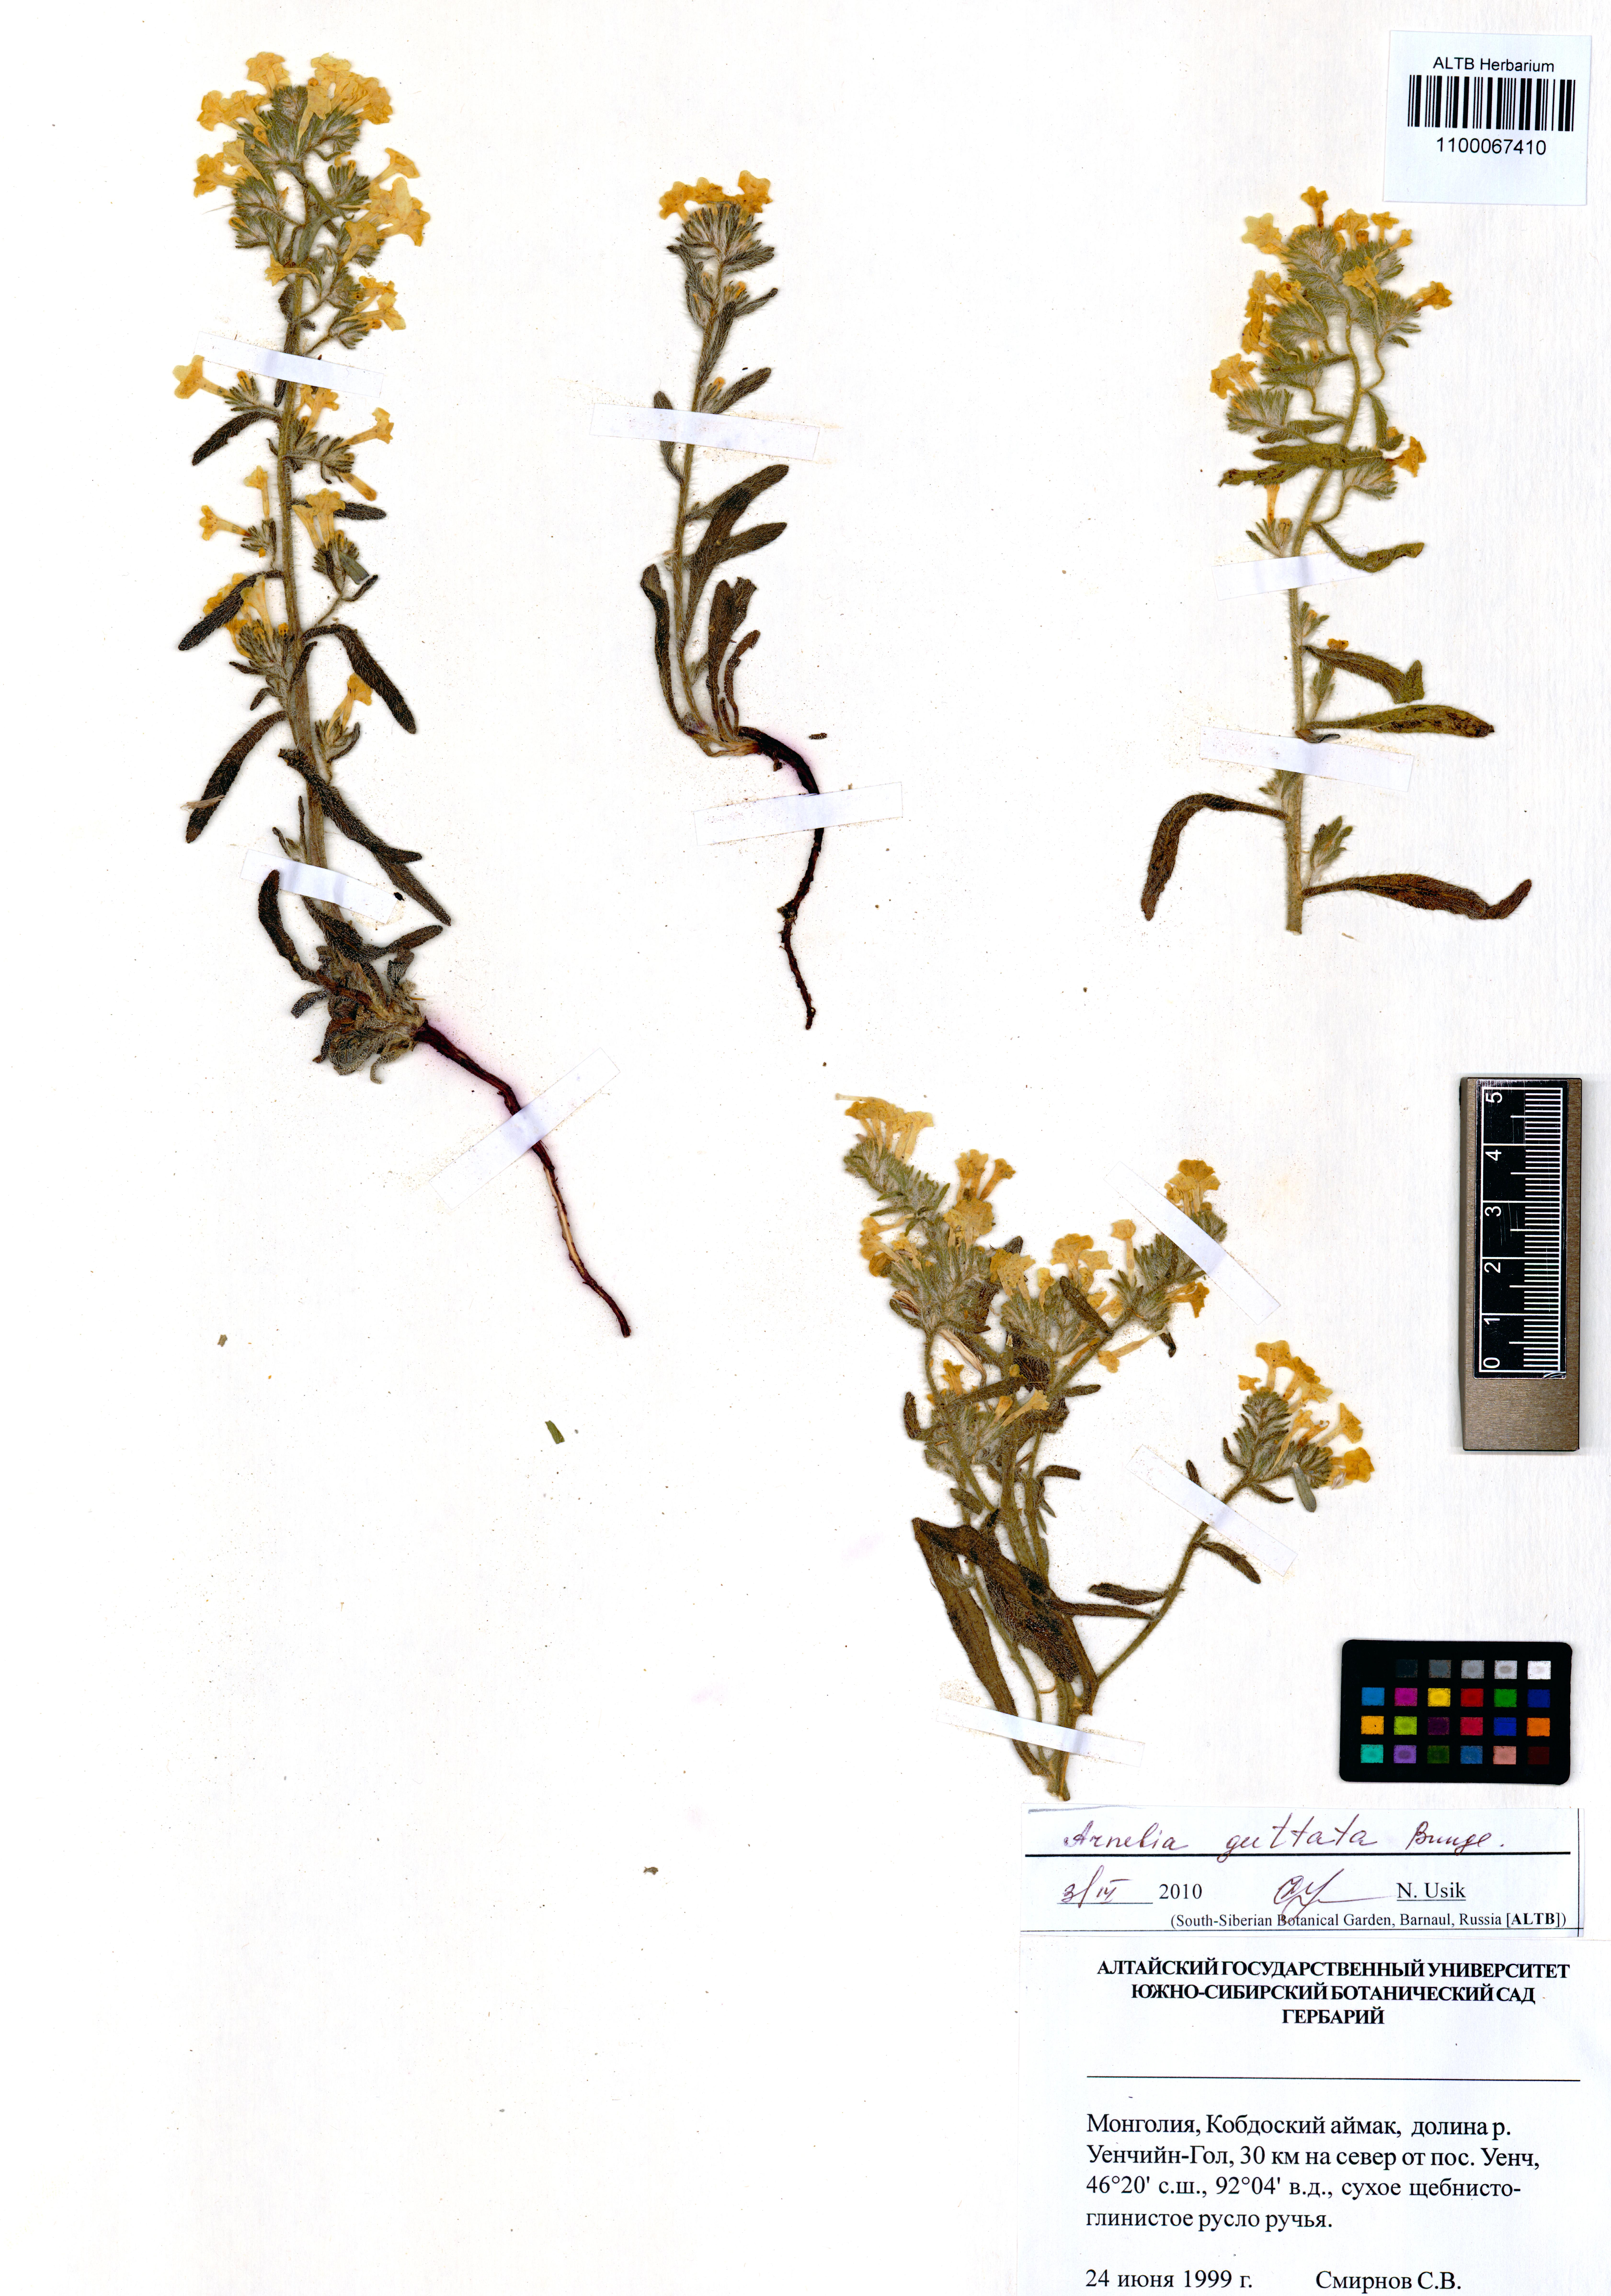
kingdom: Plantae
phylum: Tracheophyta
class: Magnoliopsida
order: Boraginales
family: Boraginaceae
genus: Arnebia
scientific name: Arnebia guttata
